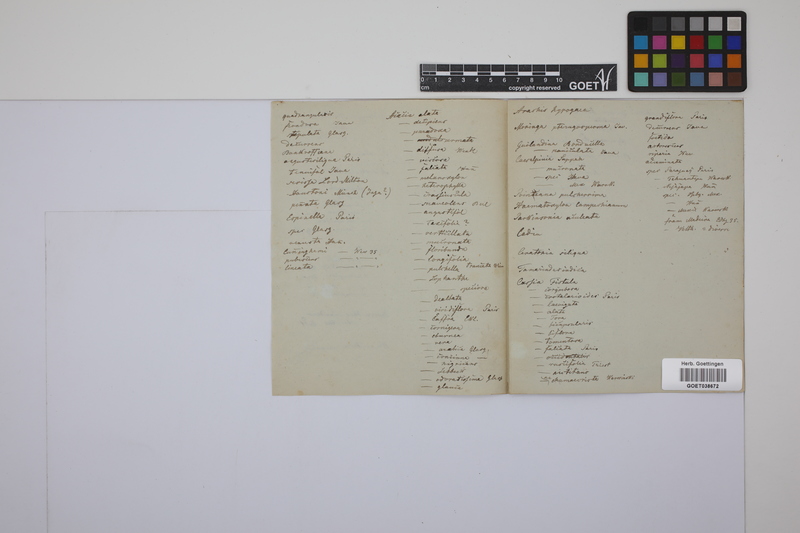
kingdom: Plantae
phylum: Tracheophyta
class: Polypodiopsida
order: Equisetales
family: Equisetaceae
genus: Equisetum
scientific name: Equisetum hyemale
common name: Rough horsetail
